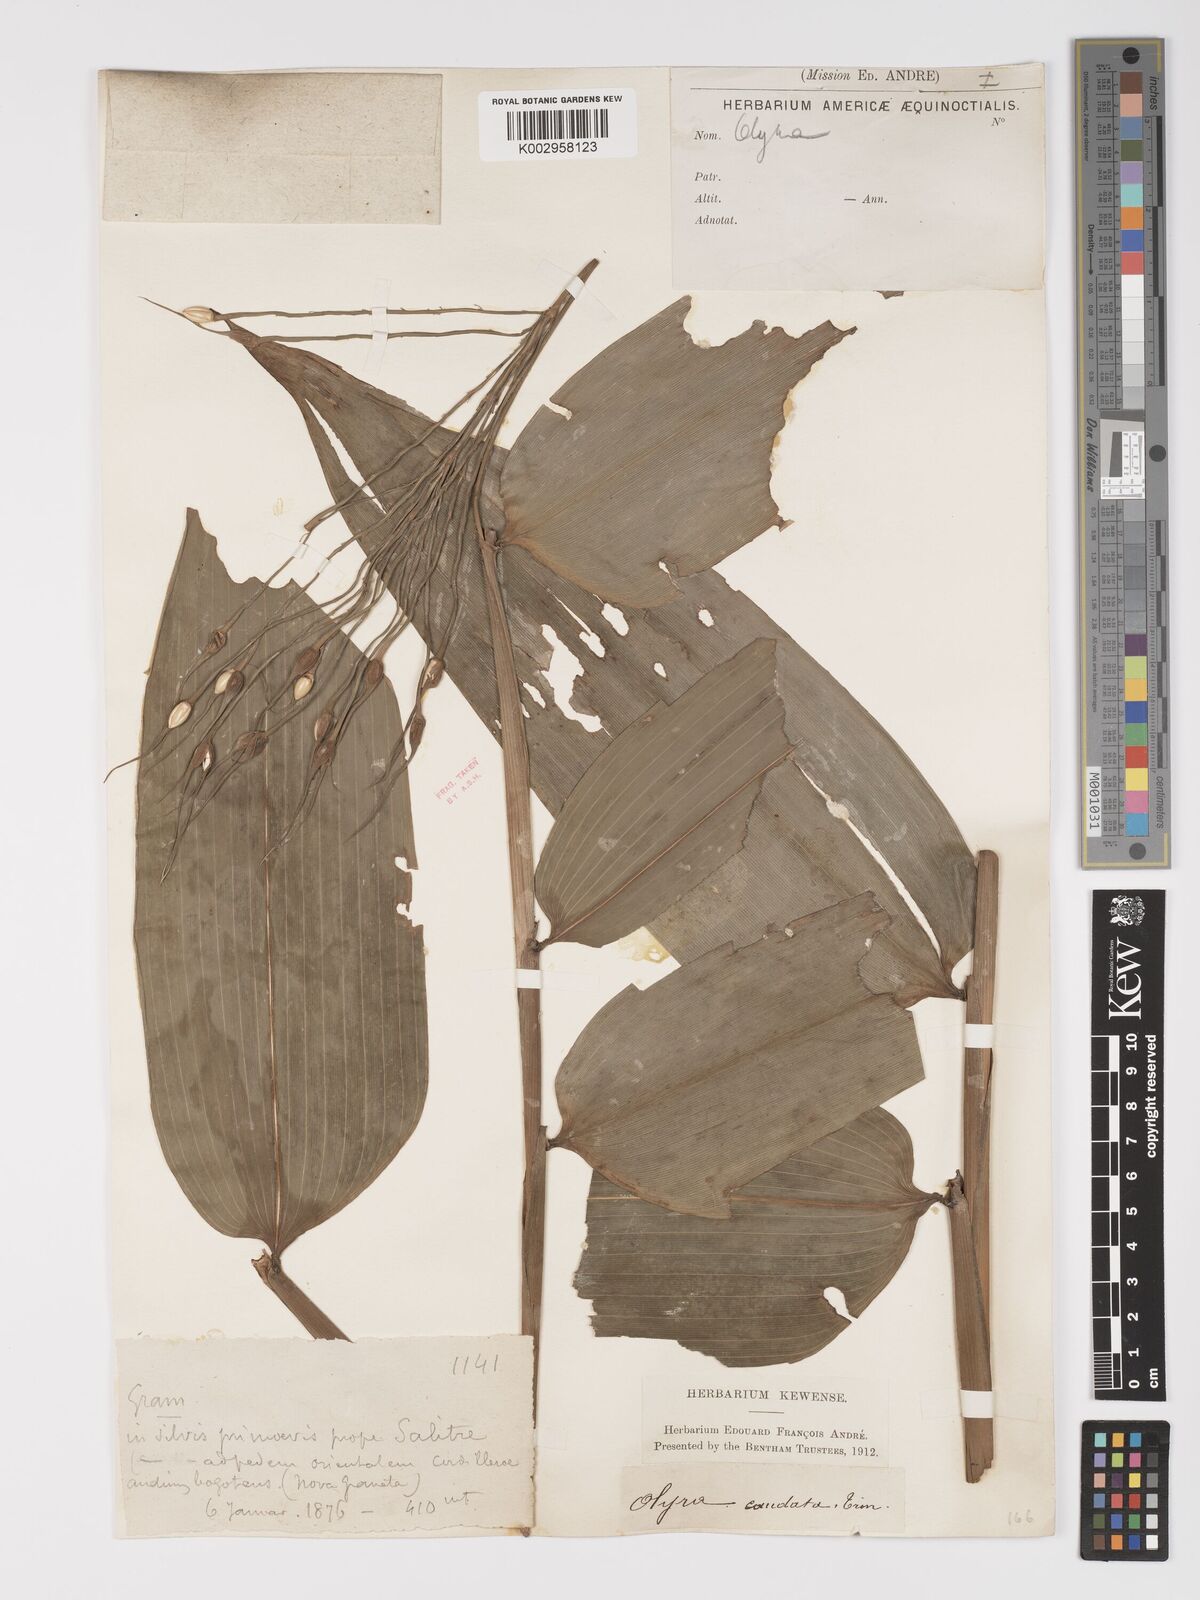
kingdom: Plantae
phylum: Tracheophyta
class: Liliopsida
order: Poales
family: Poaceae
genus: Olyra
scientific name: Olyra caudata
